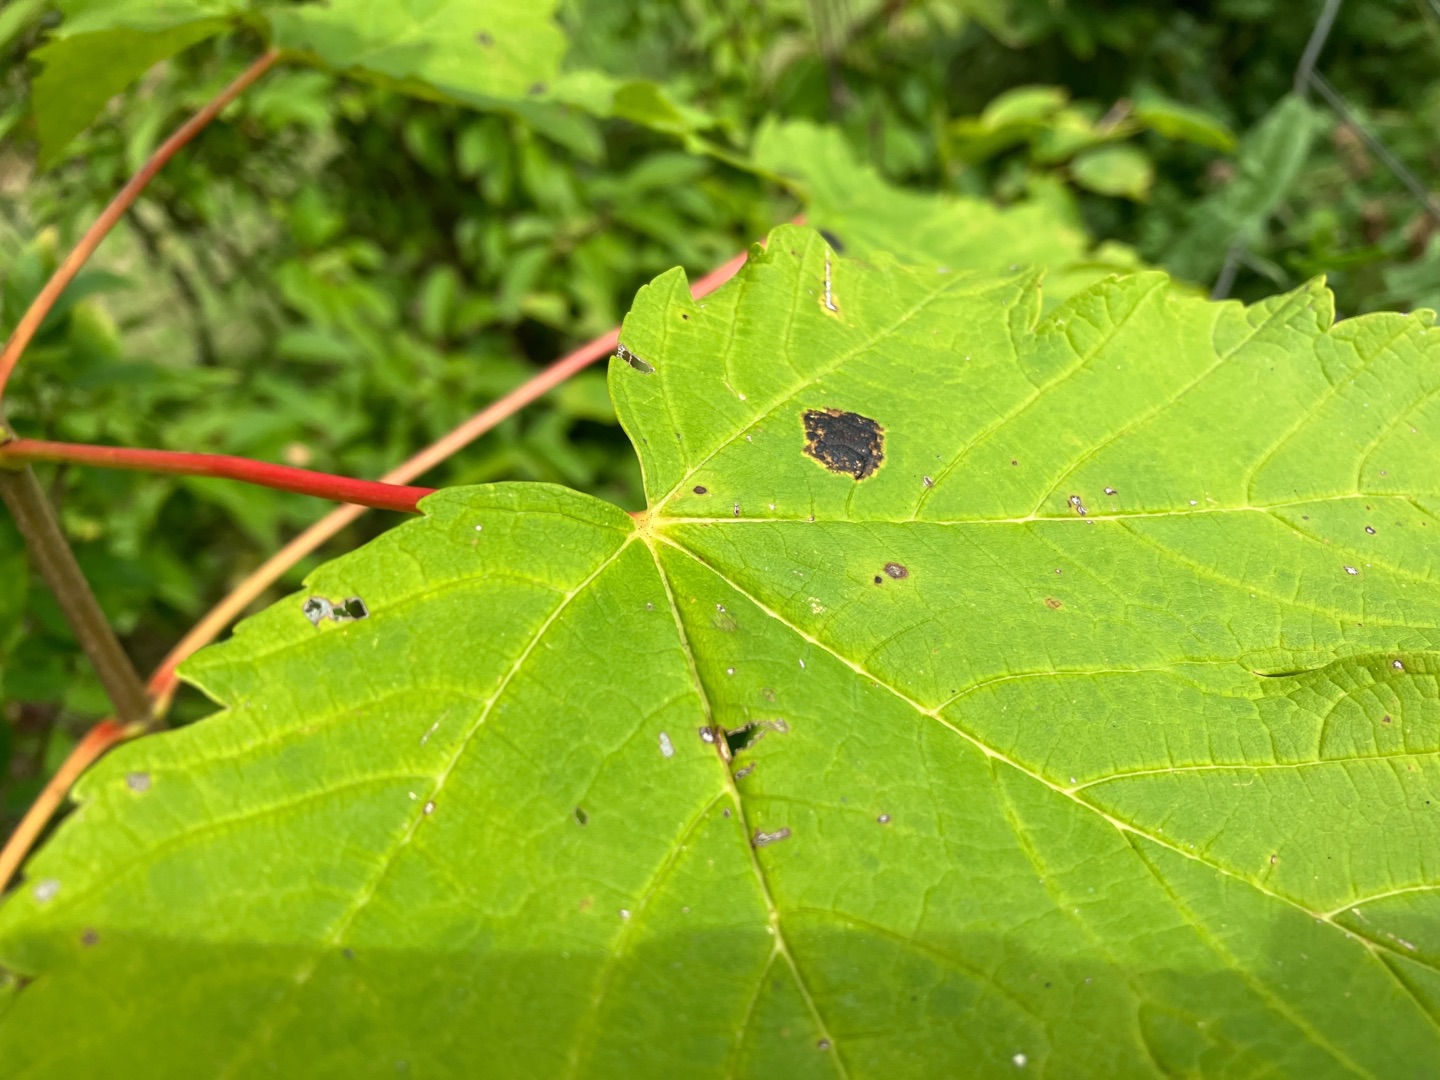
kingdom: Fungi
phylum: Ascomycota
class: Leotiomycetes
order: Rhytismatales
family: Rhytismataceae
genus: Rhytisma
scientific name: Rhytisma acerinum
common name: Ahorn-rynkeplet
